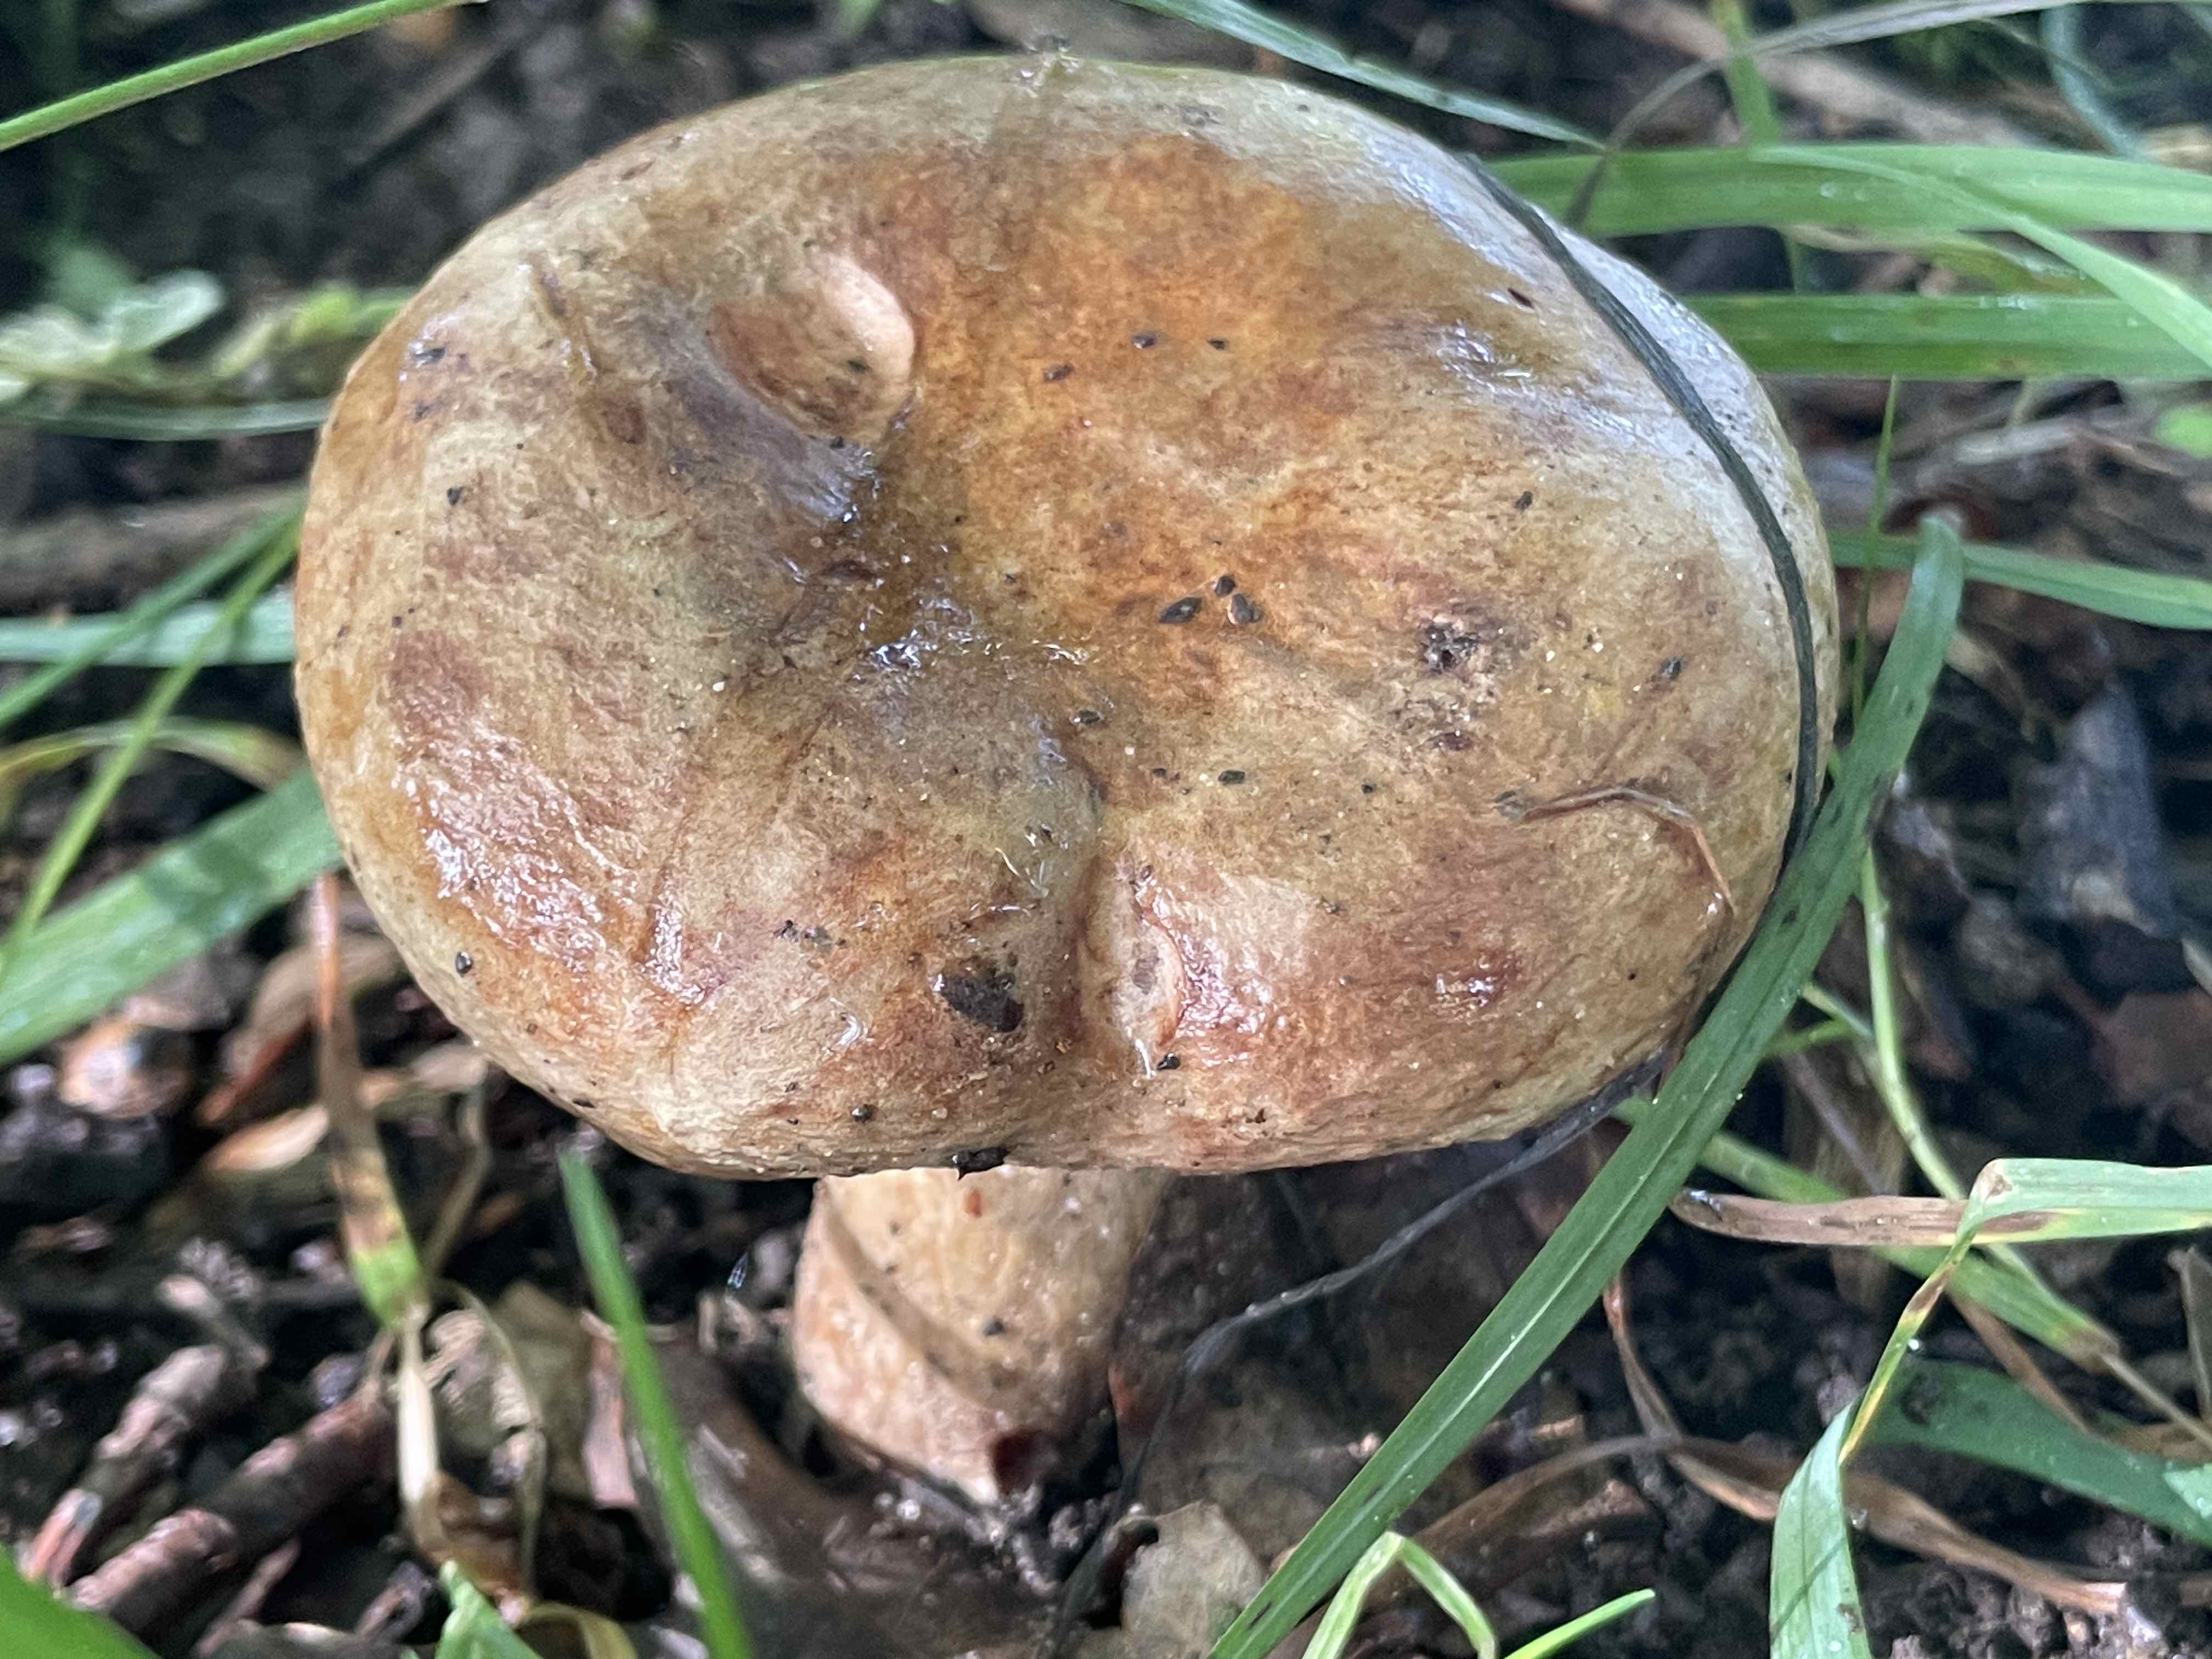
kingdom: Fungi
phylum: Basidiomycota
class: Agaricomycetes
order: Boletales
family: Paxillaceae
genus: Paxillus
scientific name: Paxillus
